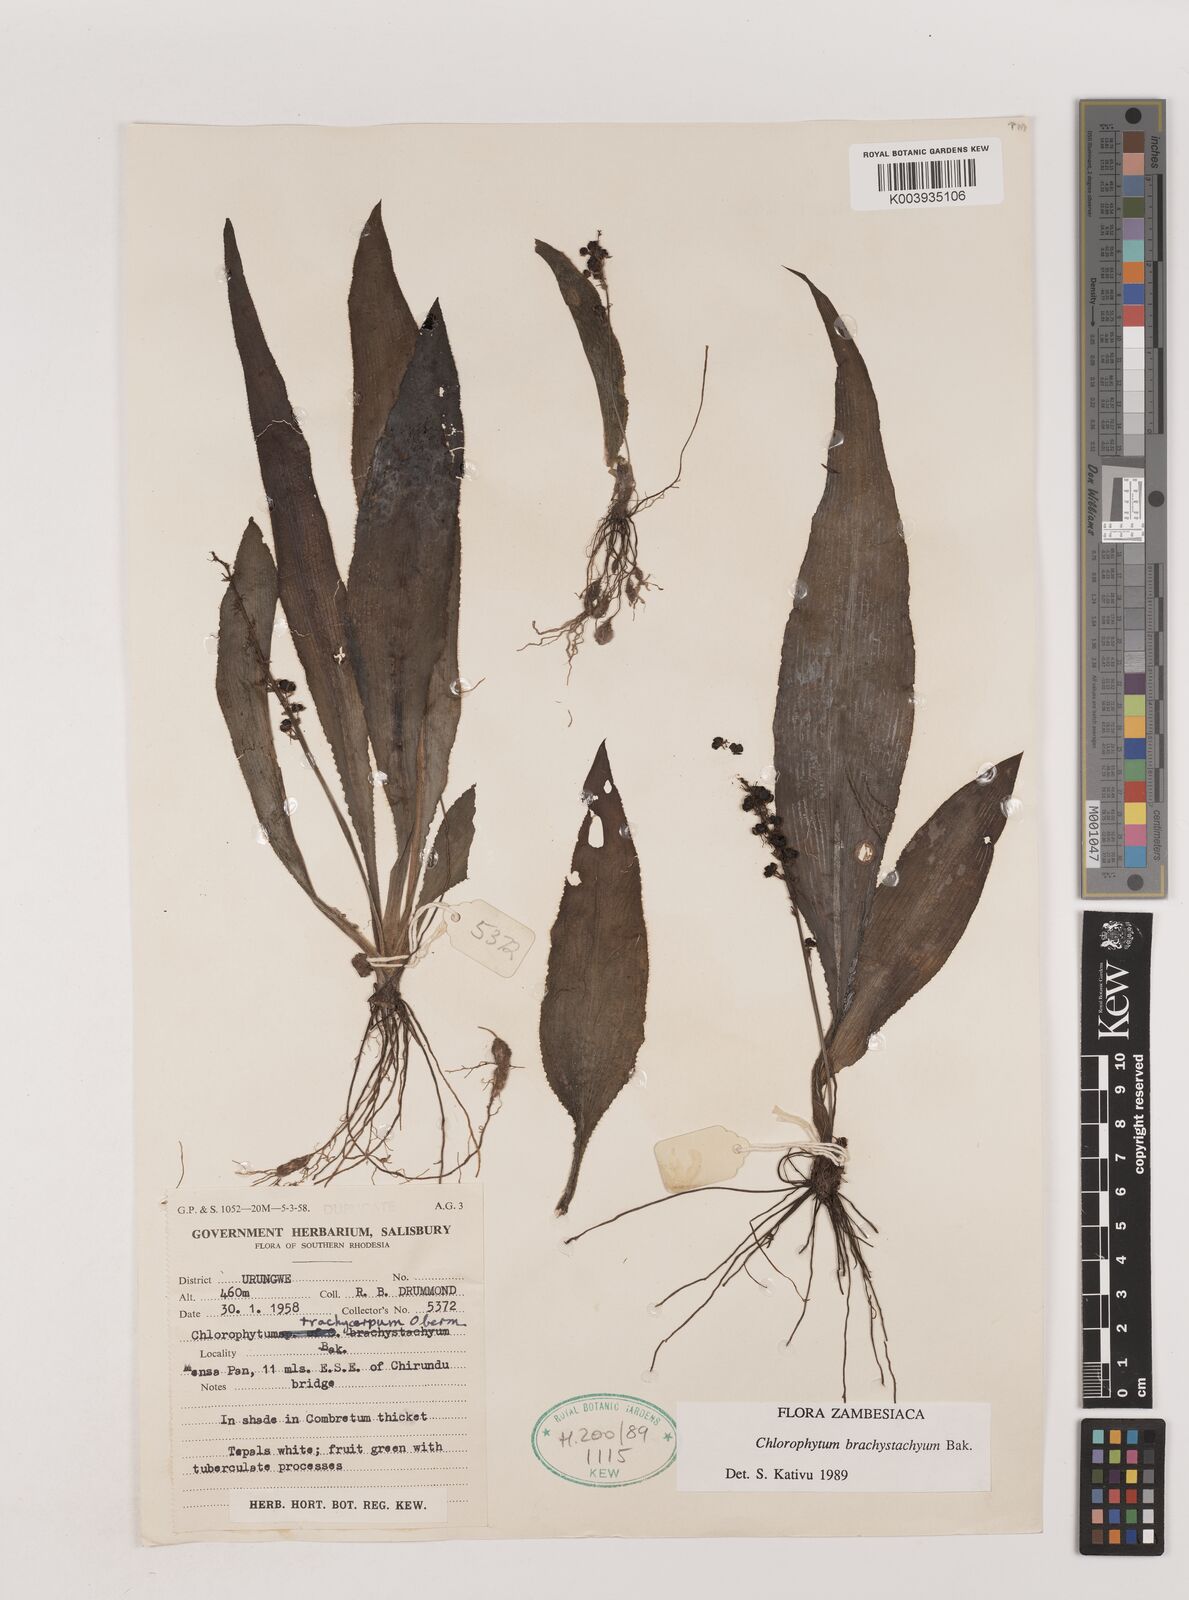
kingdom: Plantae
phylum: Tracheophyta
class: Liliopsida
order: Asparagales
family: Asparagaceae
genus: Chlorophytum
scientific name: Chlorophytum brachystachyum
